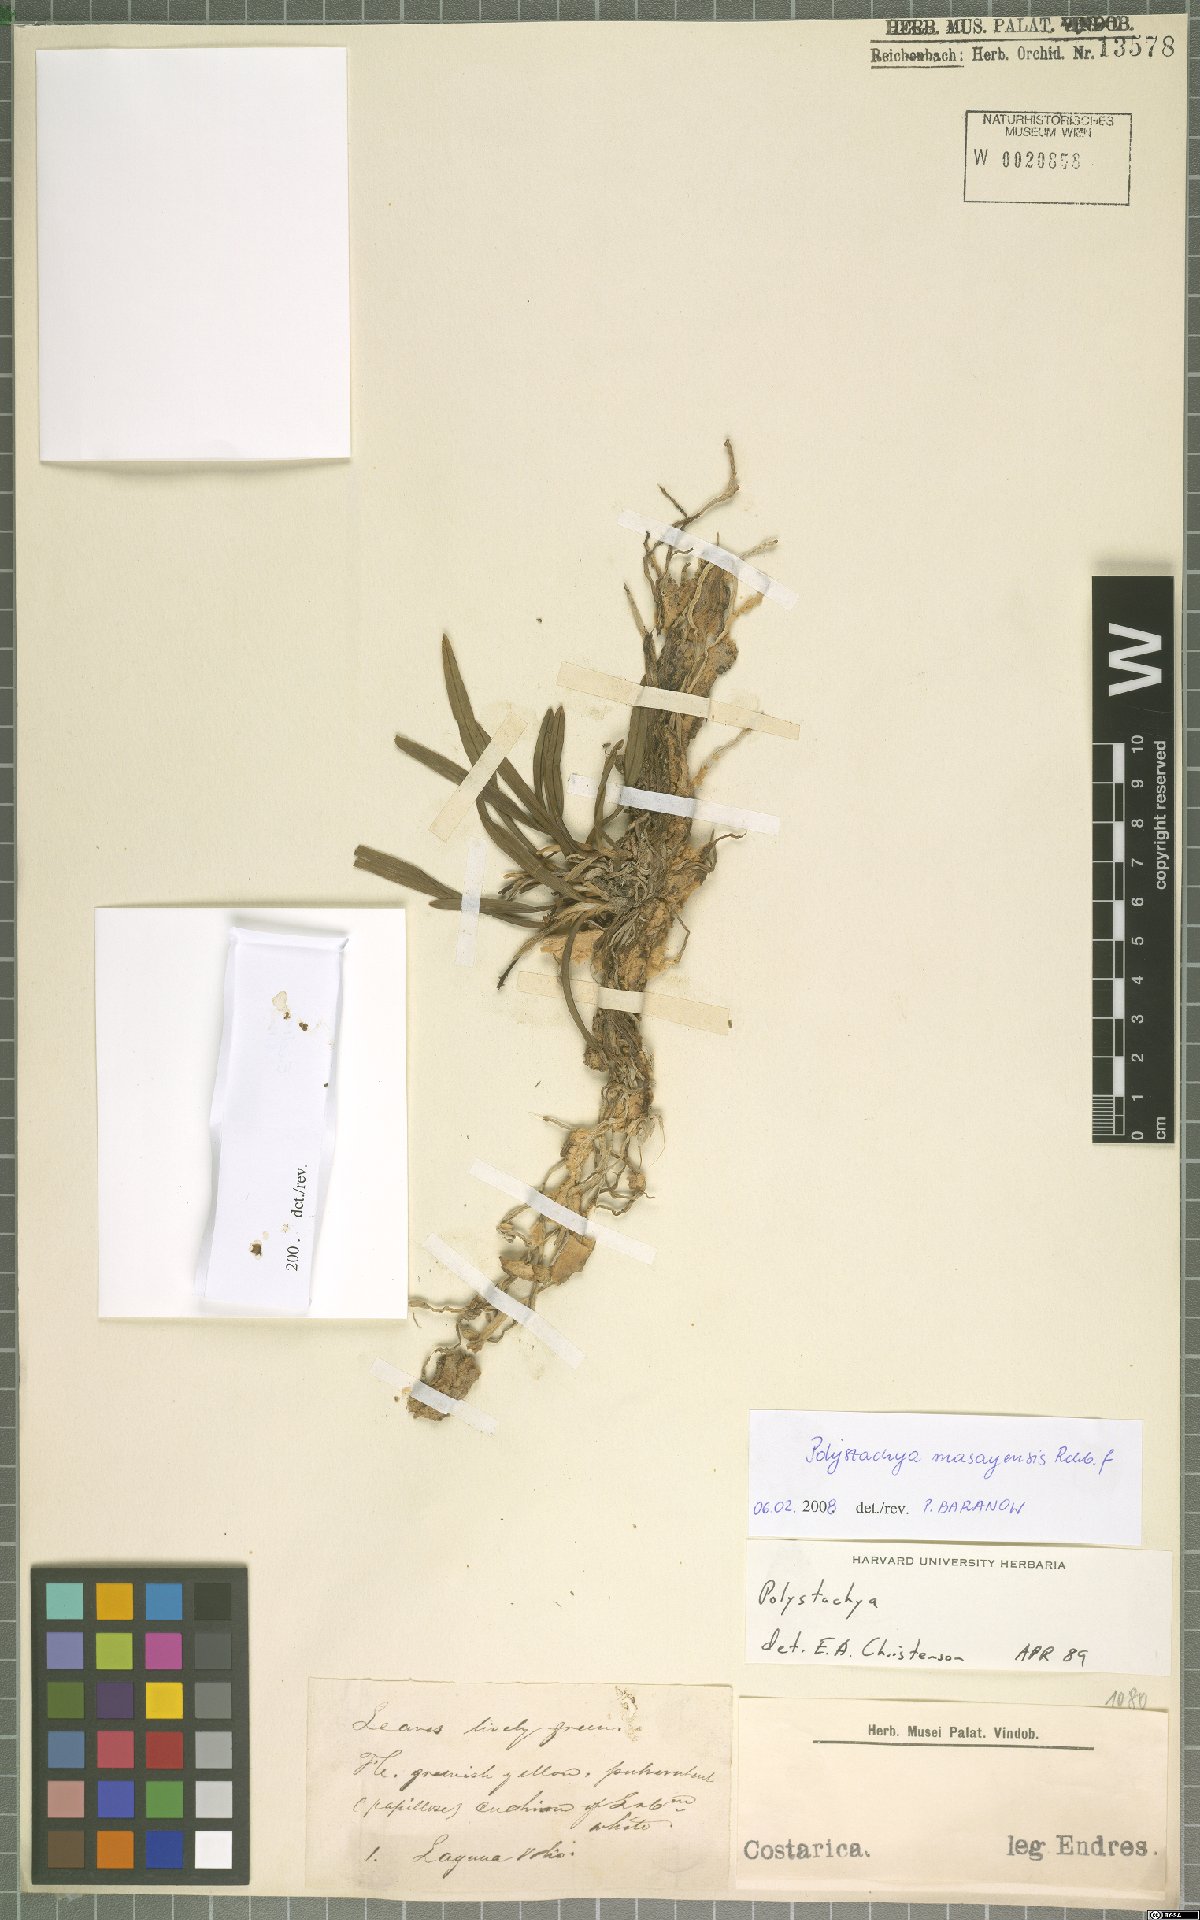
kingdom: Plantae
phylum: Tracheophyta
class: Liliopsida
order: Asparagales
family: Orchidaceae
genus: Polystachya
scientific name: Polystachya masayensis
